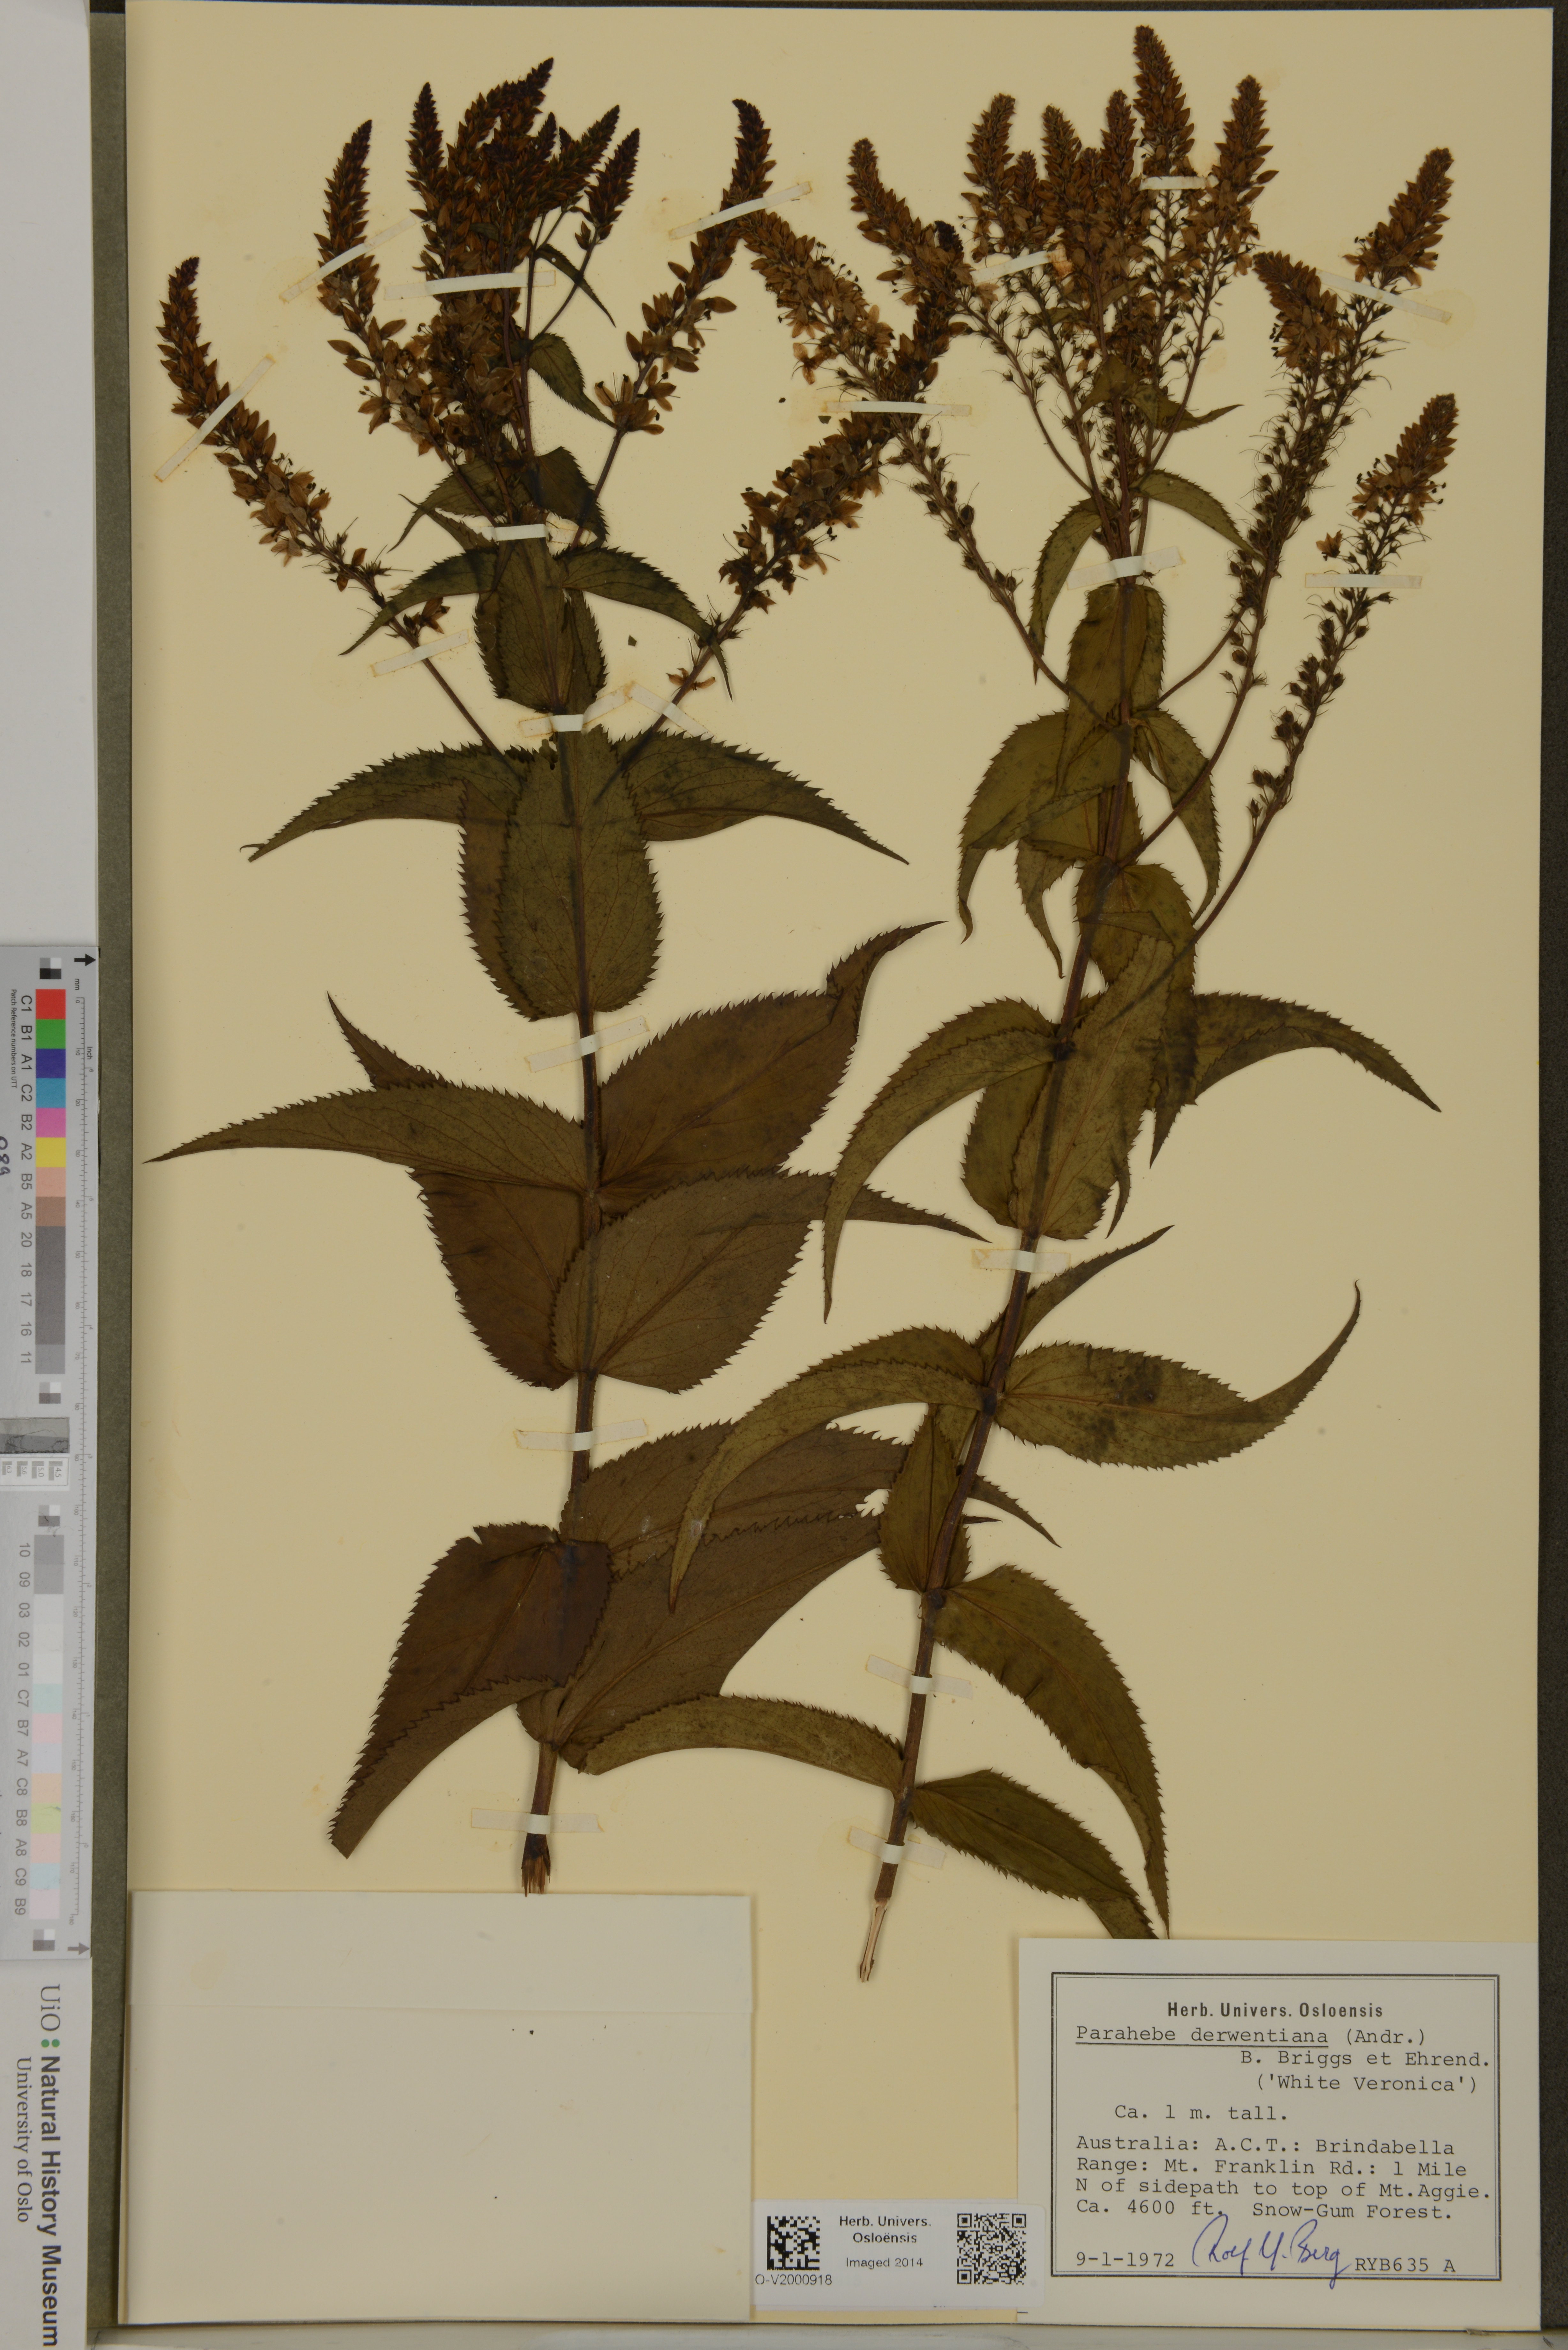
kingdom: Plantae
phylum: Tracheophyta
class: Magnoliopsida
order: Lamiales
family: Plantaginaceae
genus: Veronica
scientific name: Veronica derwentiana
